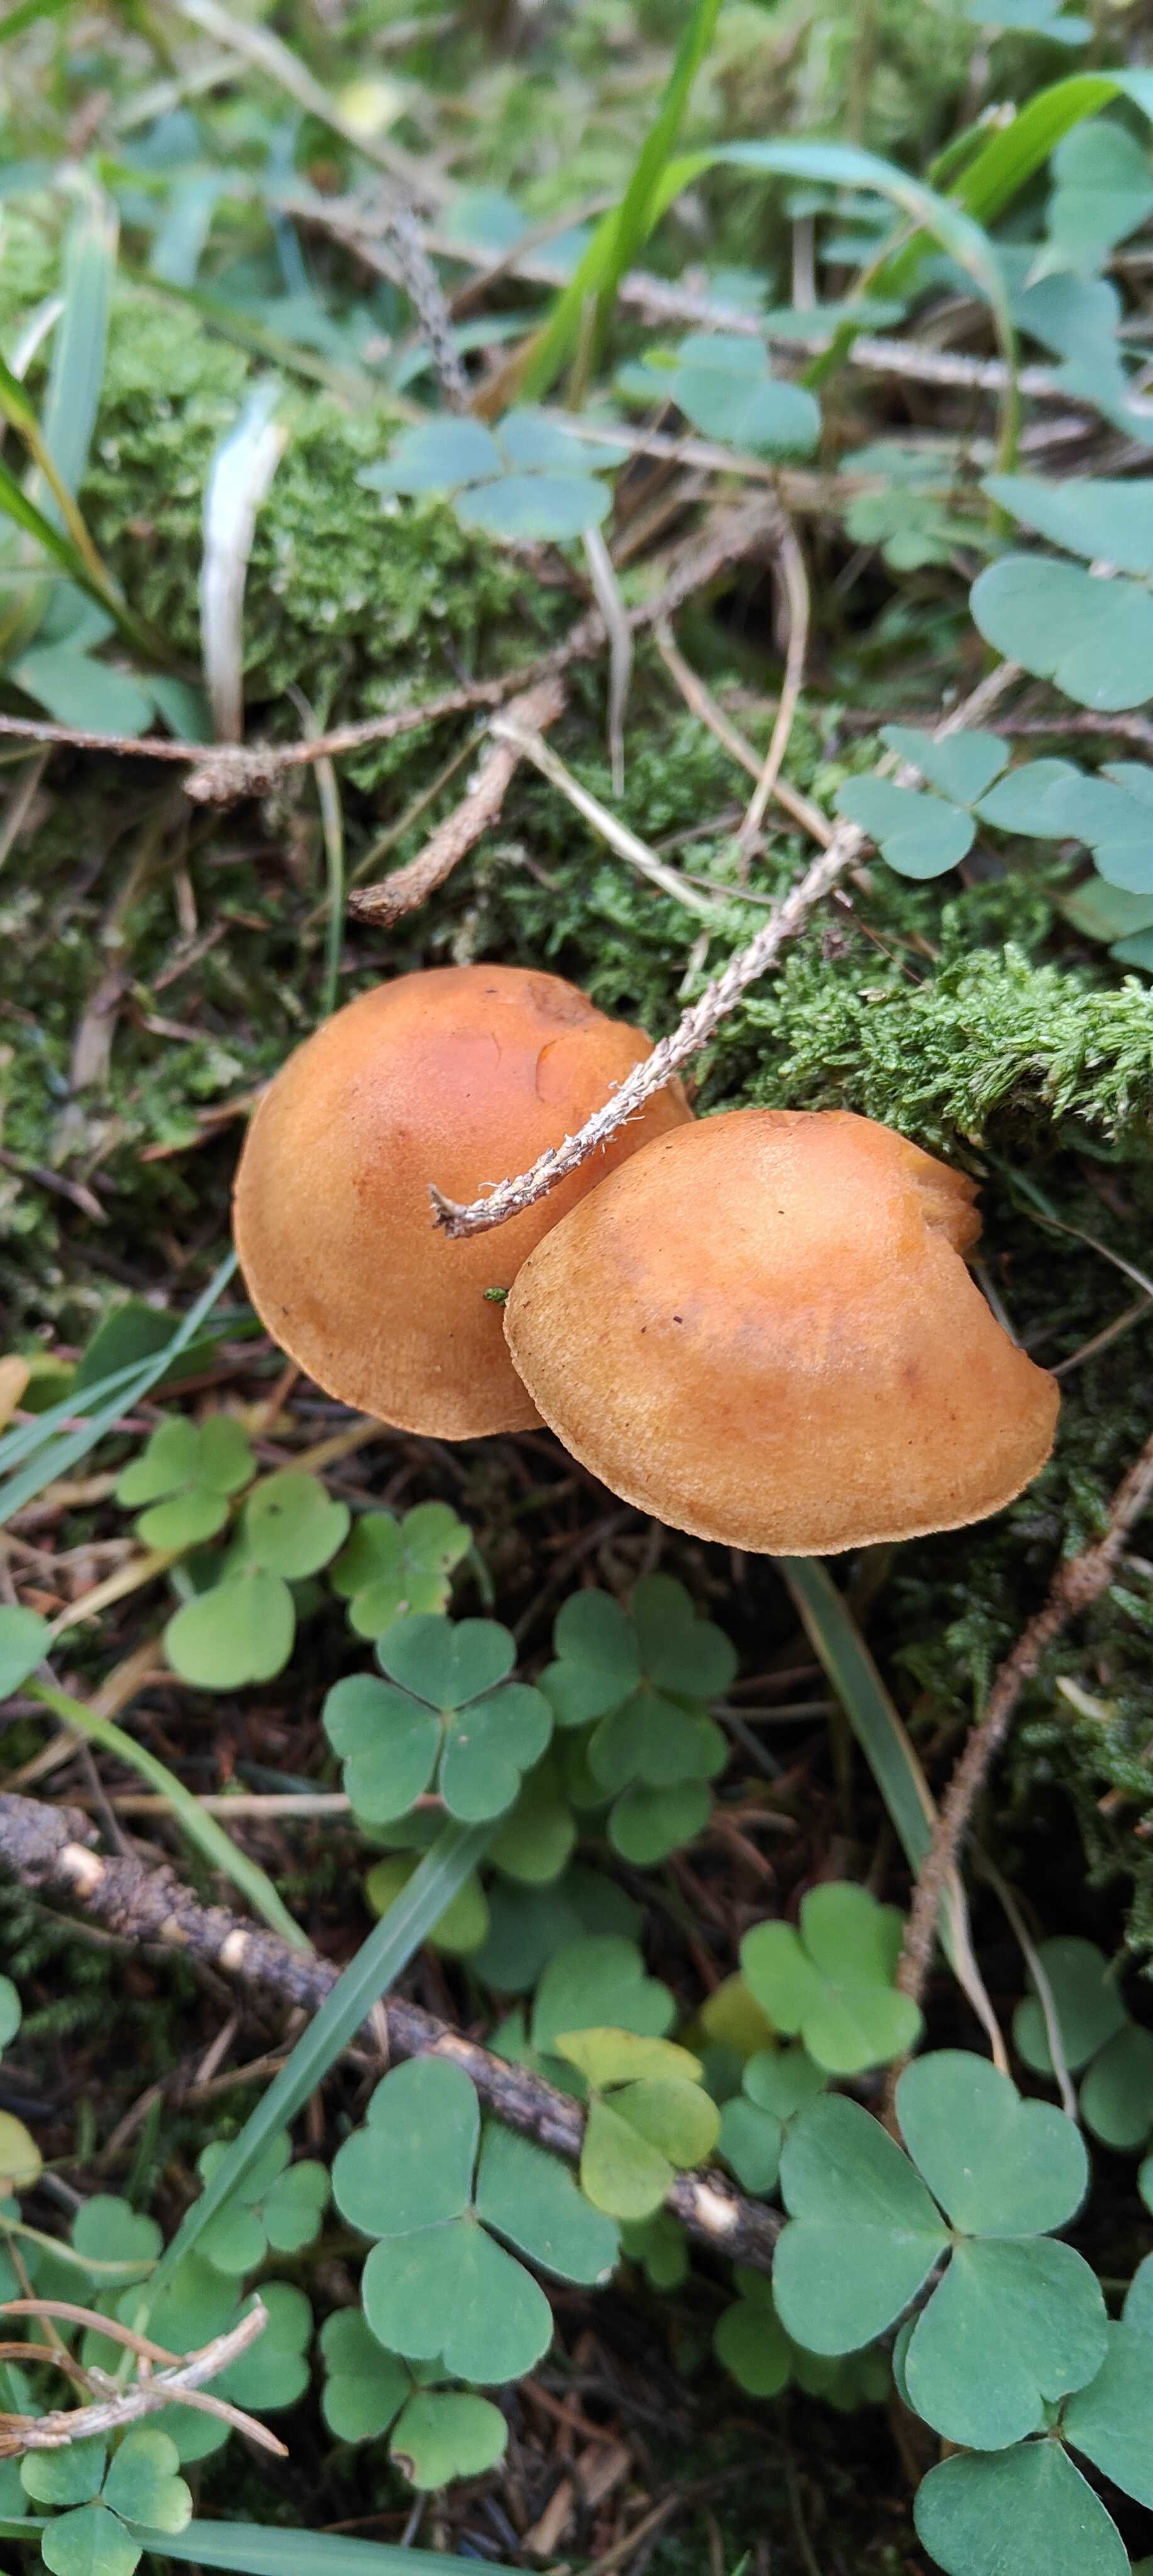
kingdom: Fungi
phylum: Basidiomycota
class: Agaricomycetes
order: Agaricales
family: Hymenogastraceae
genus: Gymnopilus
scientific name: Gymnopilus penetrans
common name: plettet flammehat
